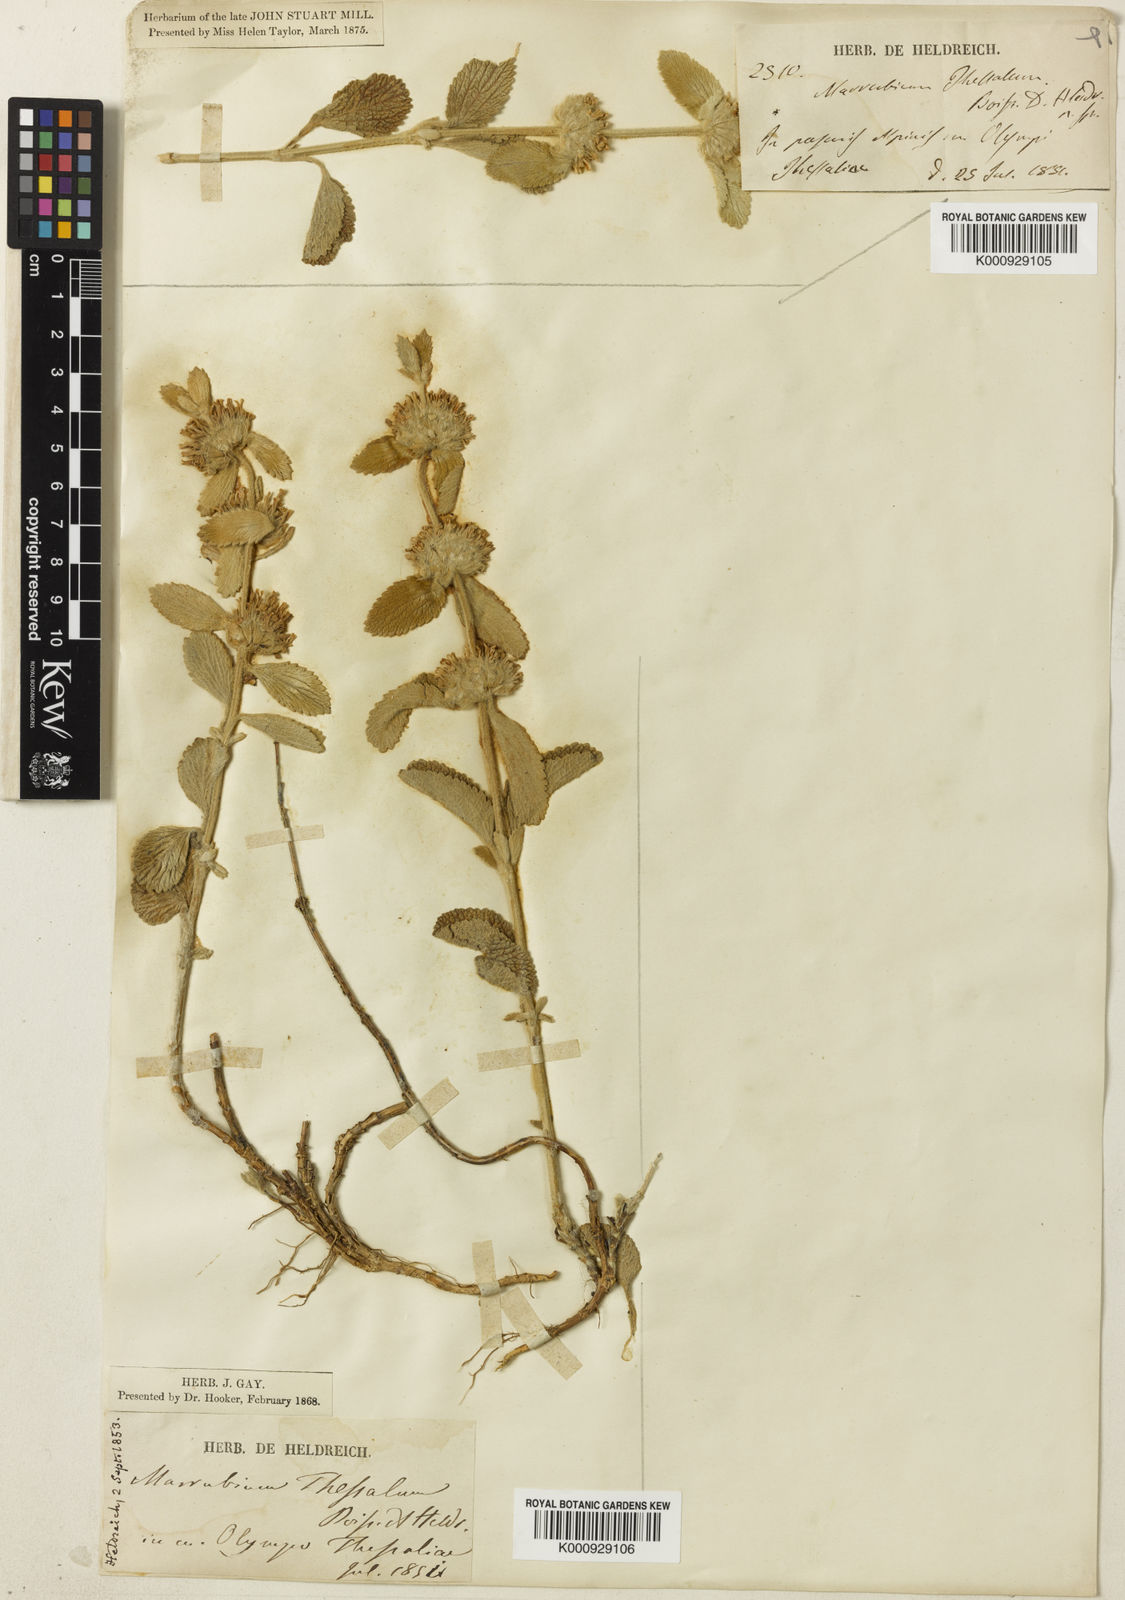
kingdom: Plantae
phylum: Tracheophyta
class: Magnoliopsida
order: Lamiales
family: Lamiaceae
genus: Marrubium
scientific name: Marrubium thessalum
